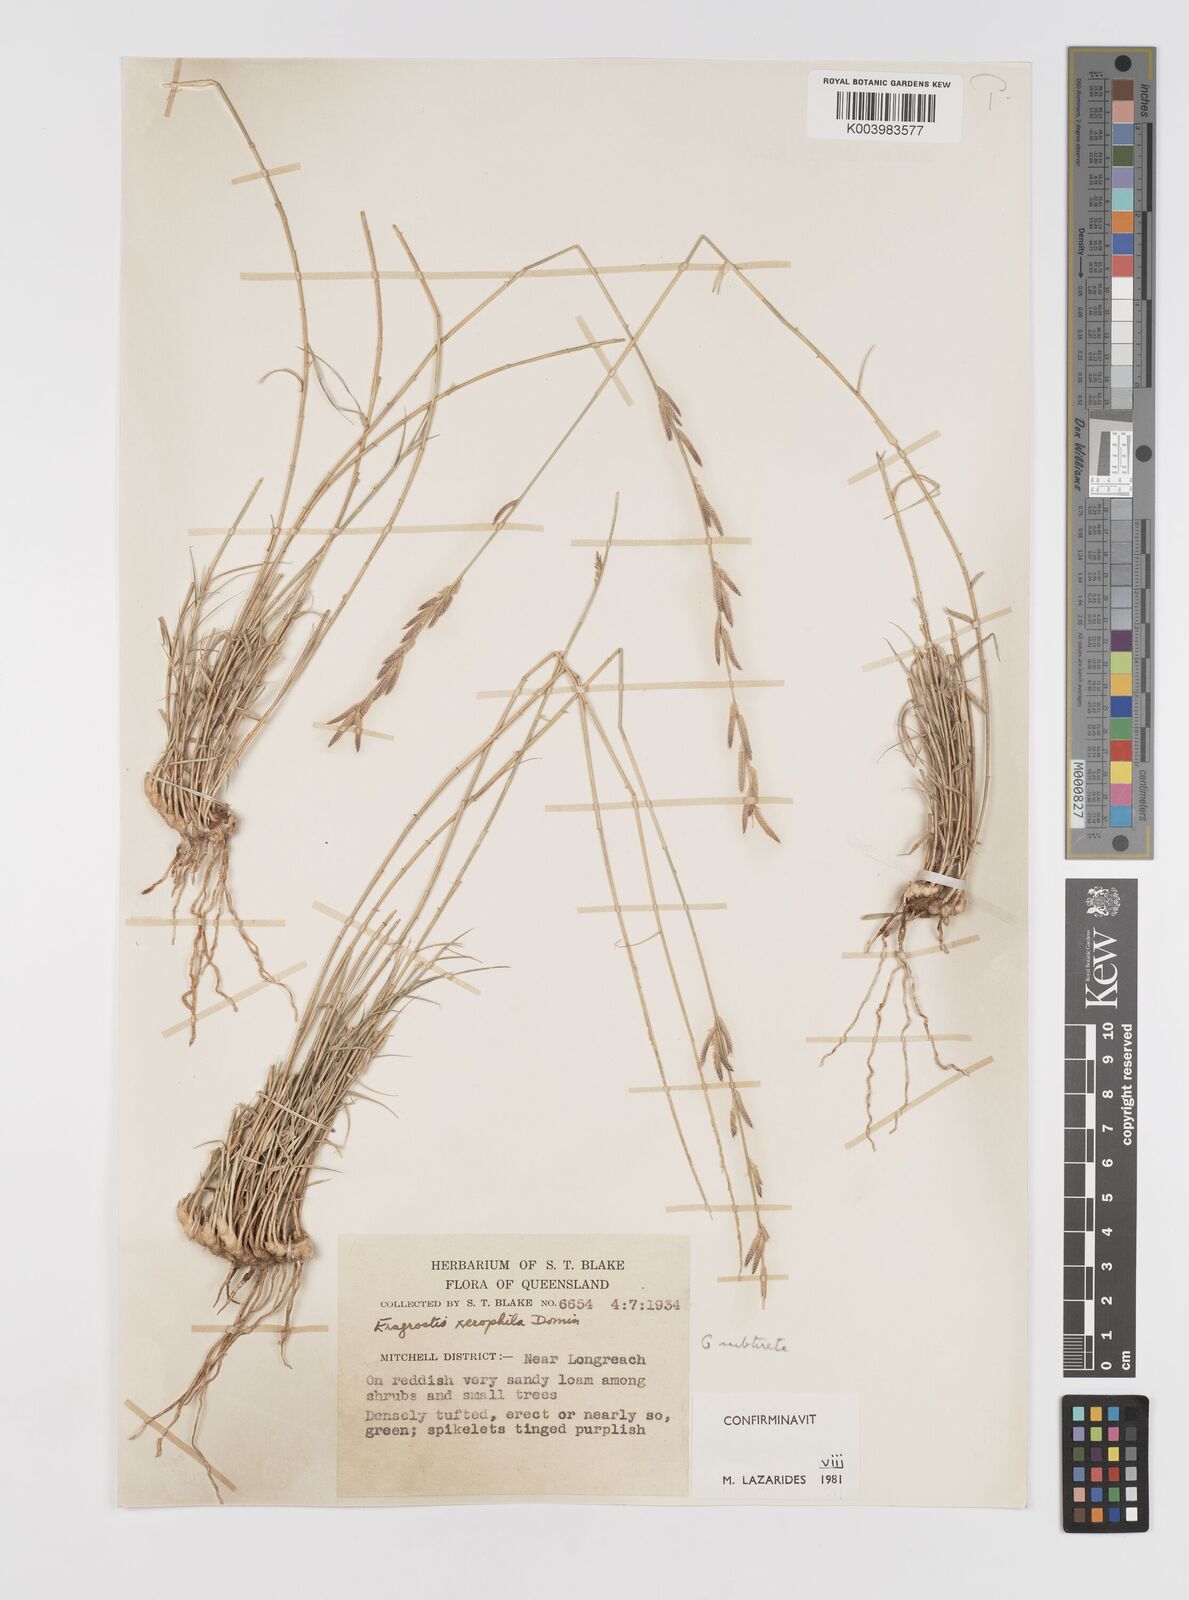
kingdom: Plantae
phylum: Tracheophyta
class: Liliopsida
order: Poales
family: Poaceae
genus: Eragrostis
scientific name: Eragrostis xerophila
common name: Wire wandarrie grass
